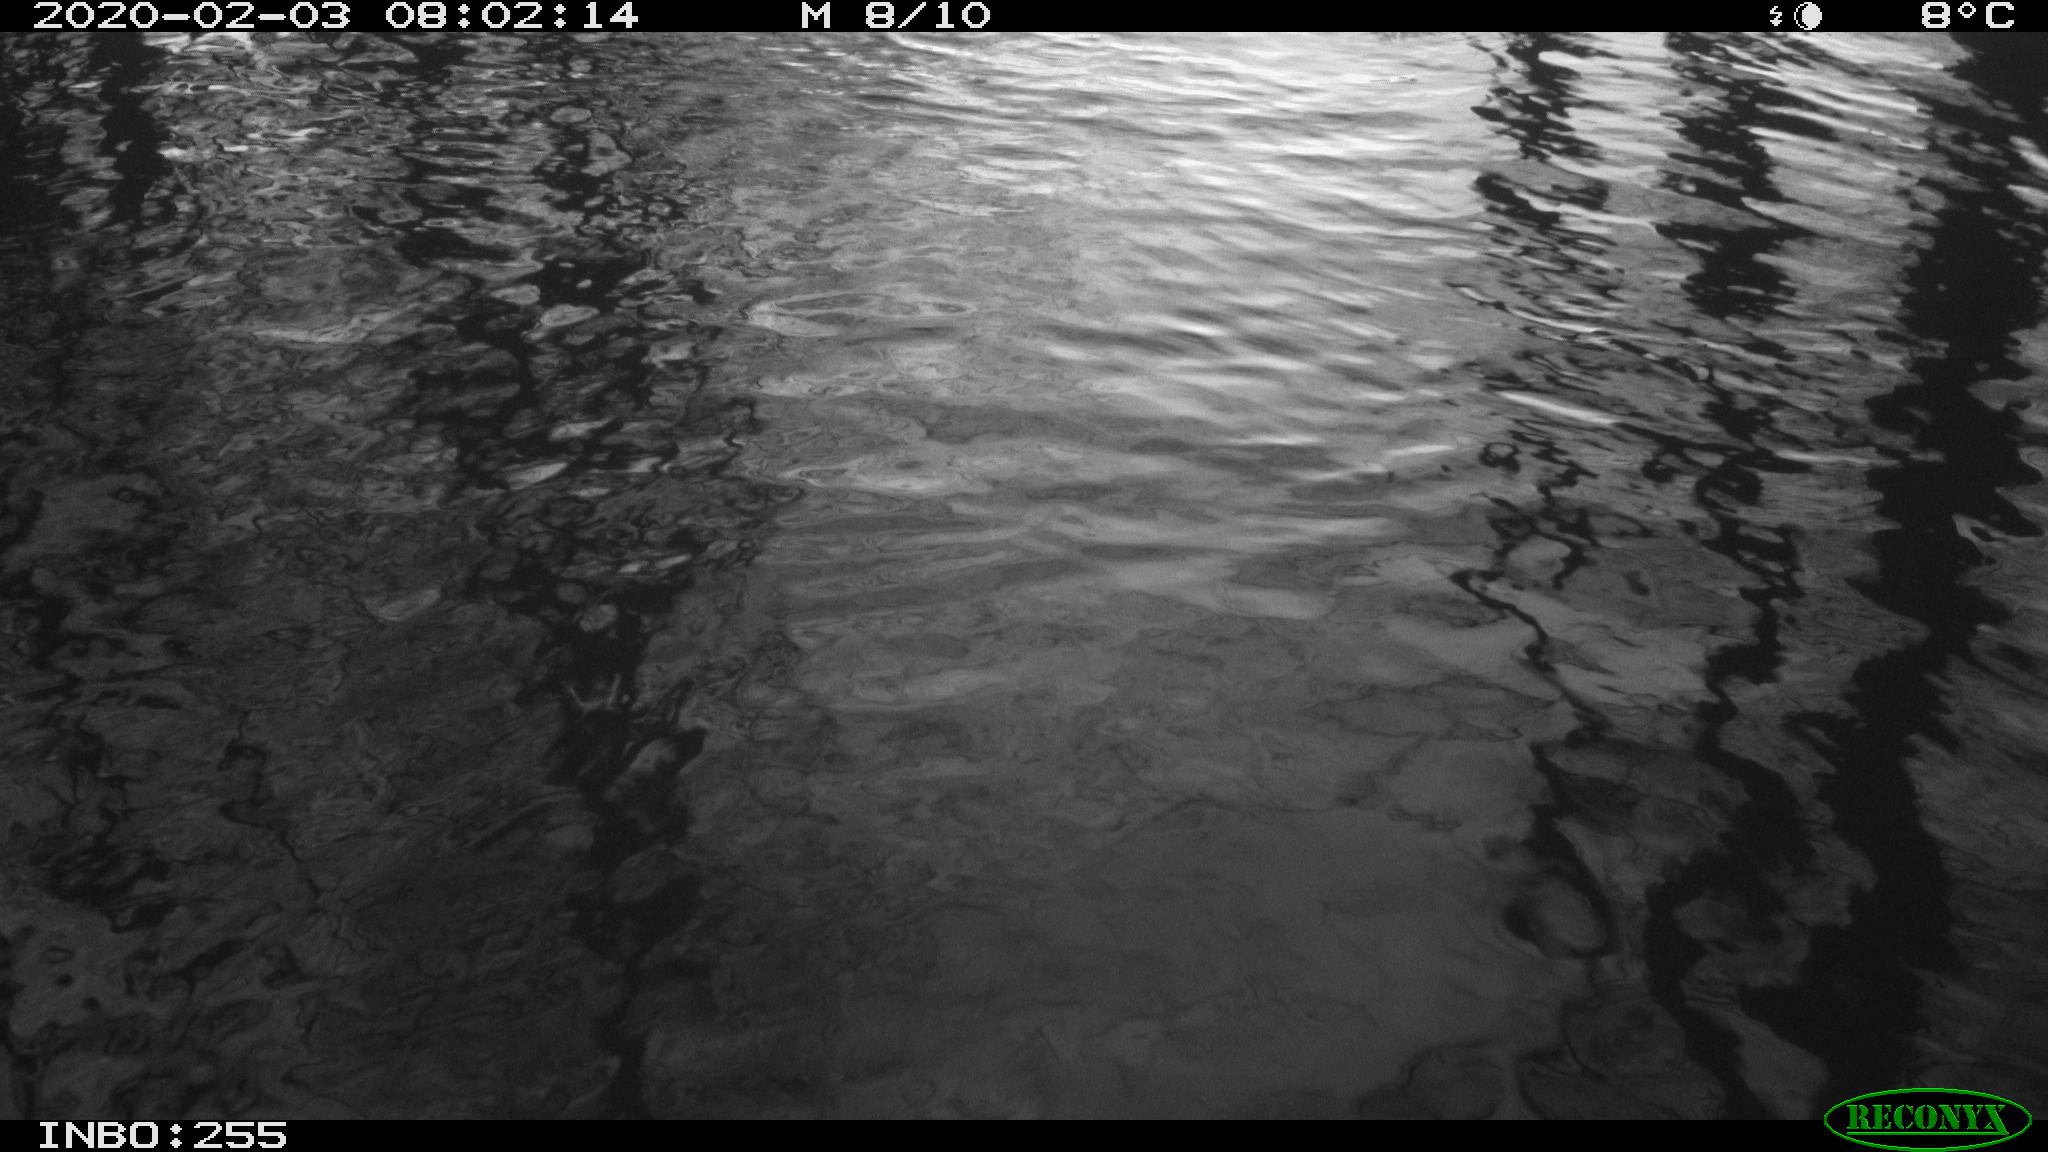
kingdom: Animalia
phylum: Chordata
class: Aves
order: Gruiformes
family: Rallidae
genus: Gallinula
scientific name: Gallinula chloropus
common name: Common moorhen
